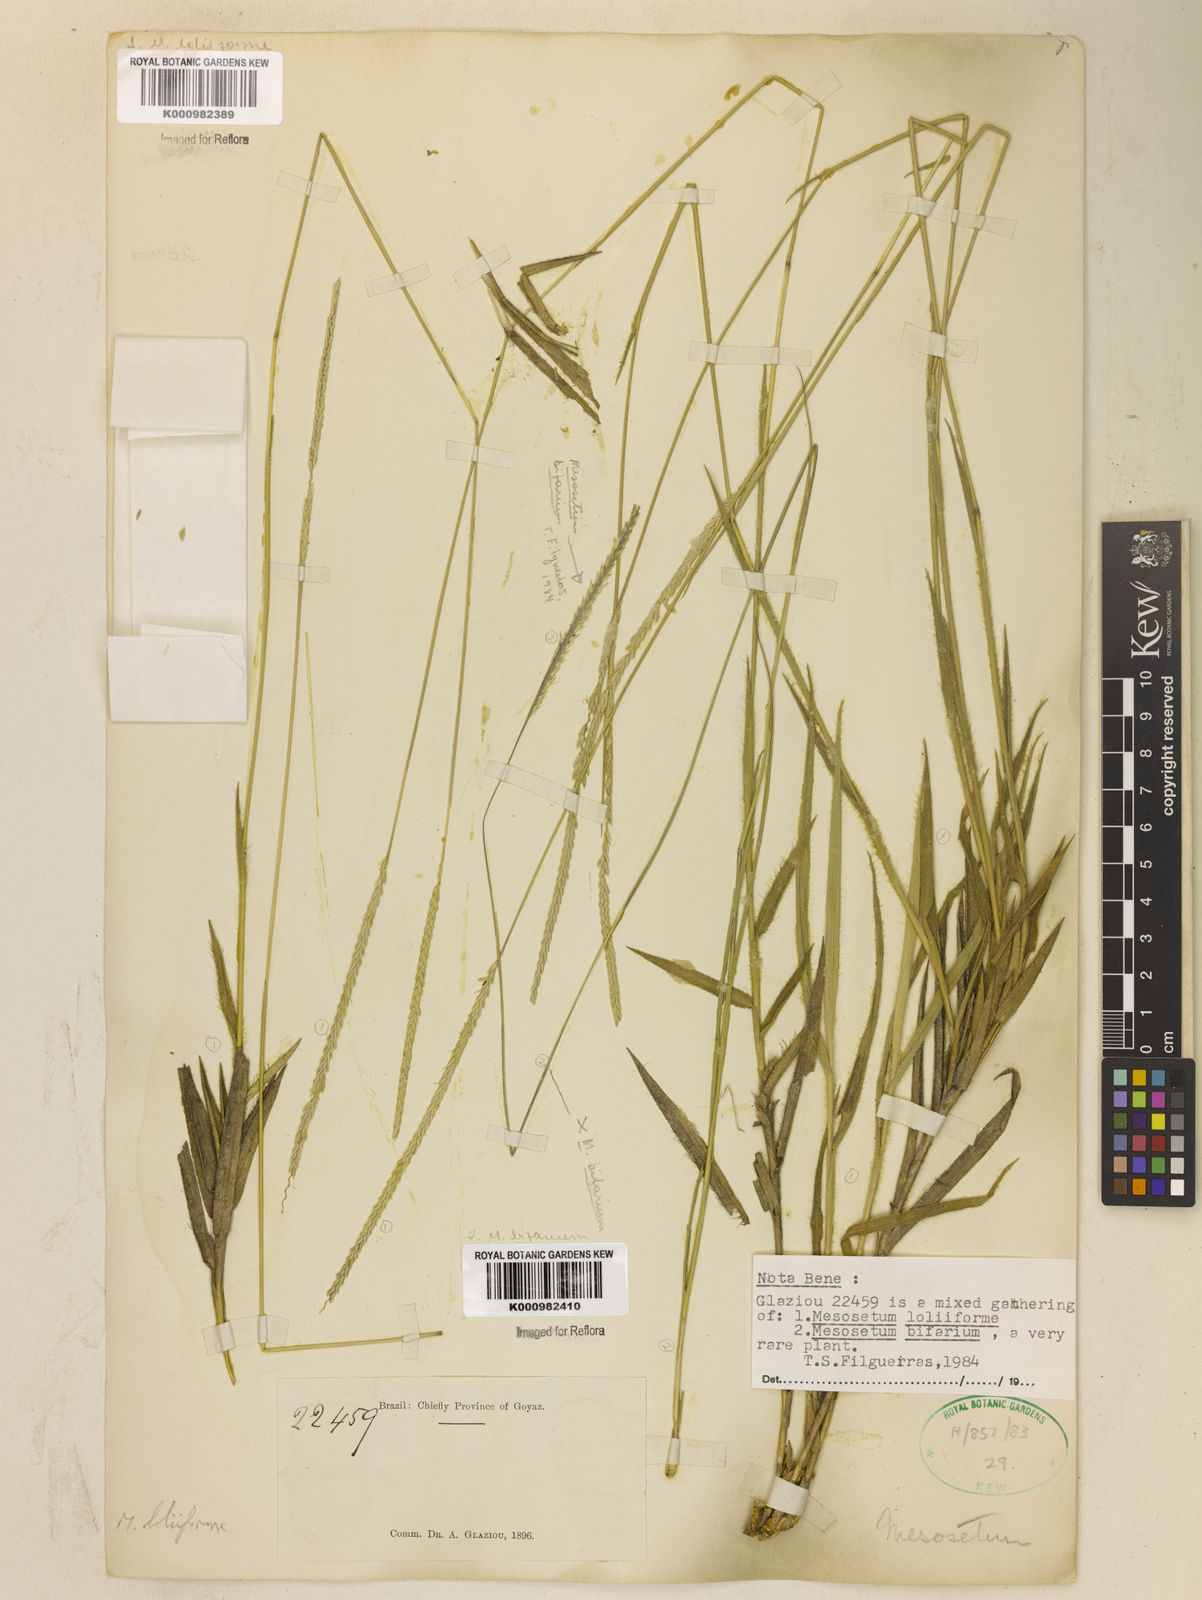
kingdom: Plantae
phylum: Tracheophyta
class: Liliopsida
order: Poales
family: Poaceae
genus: Mesosetum
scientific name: Mesosetum bifarium
